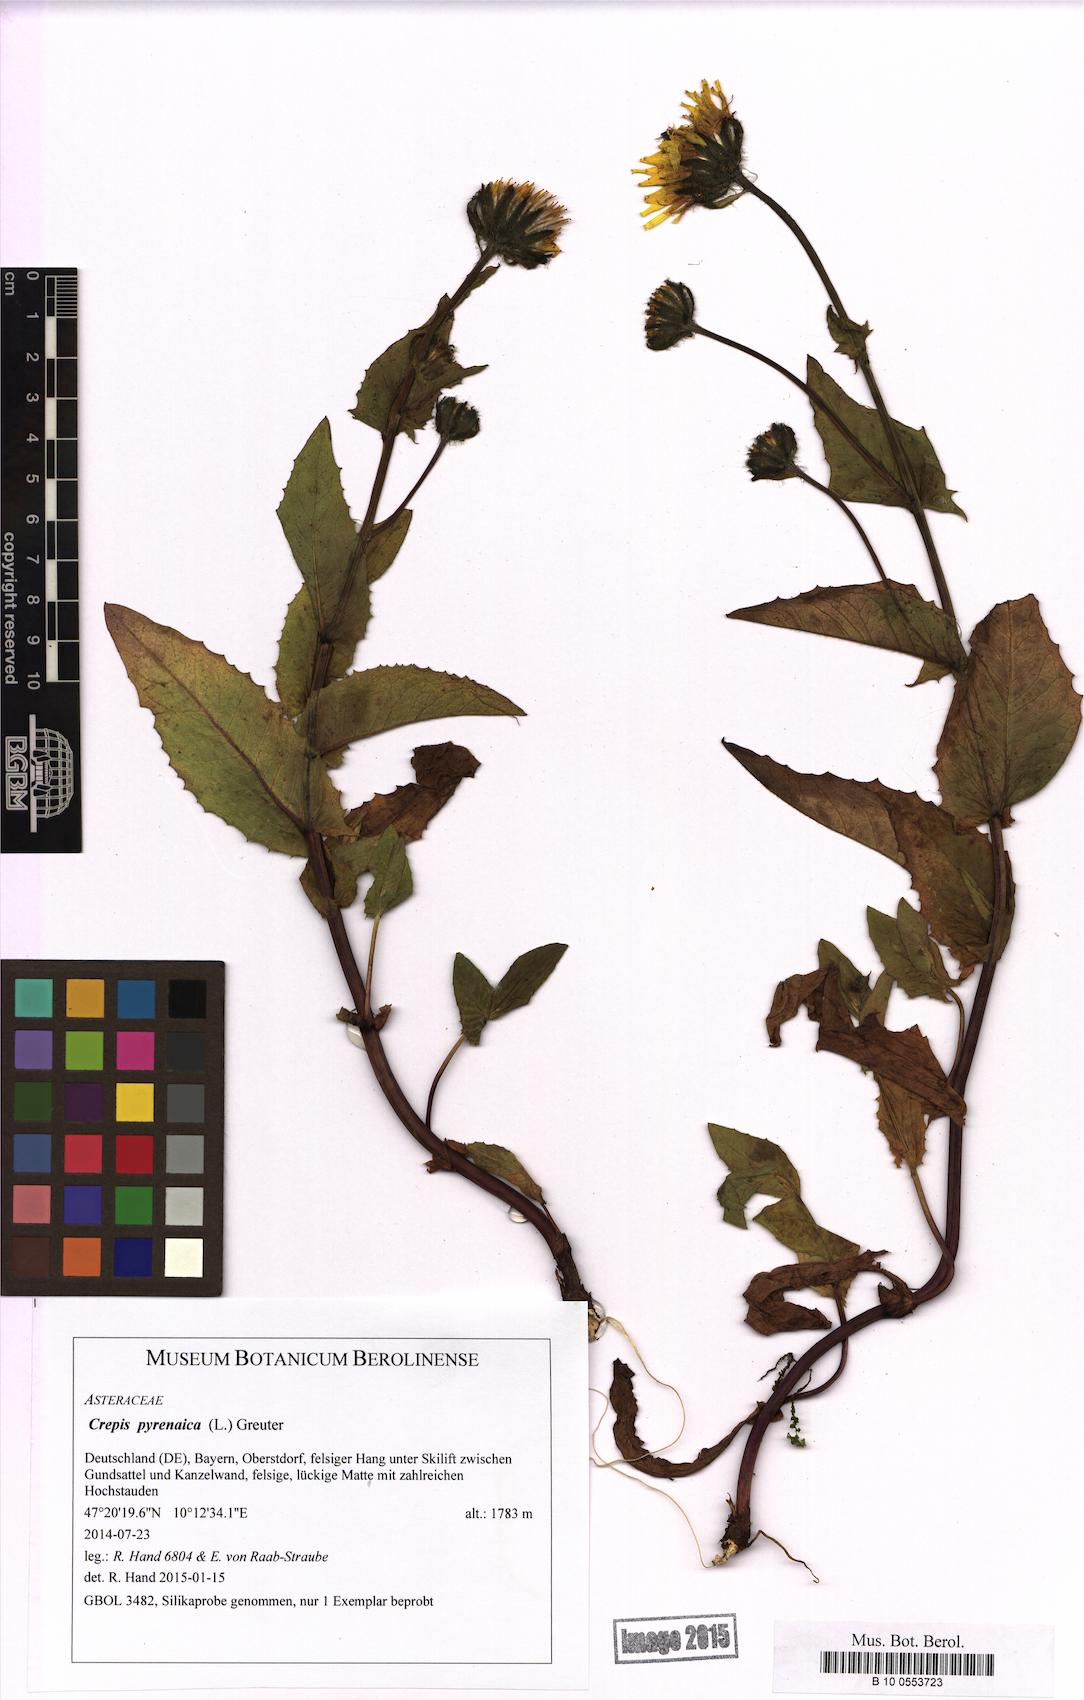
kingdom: Plantae
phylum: Tracheophyta
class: Magnoliopsida
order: Asterales
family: Asteraceae
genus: Crepis
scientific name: Crepis pyrenaica
